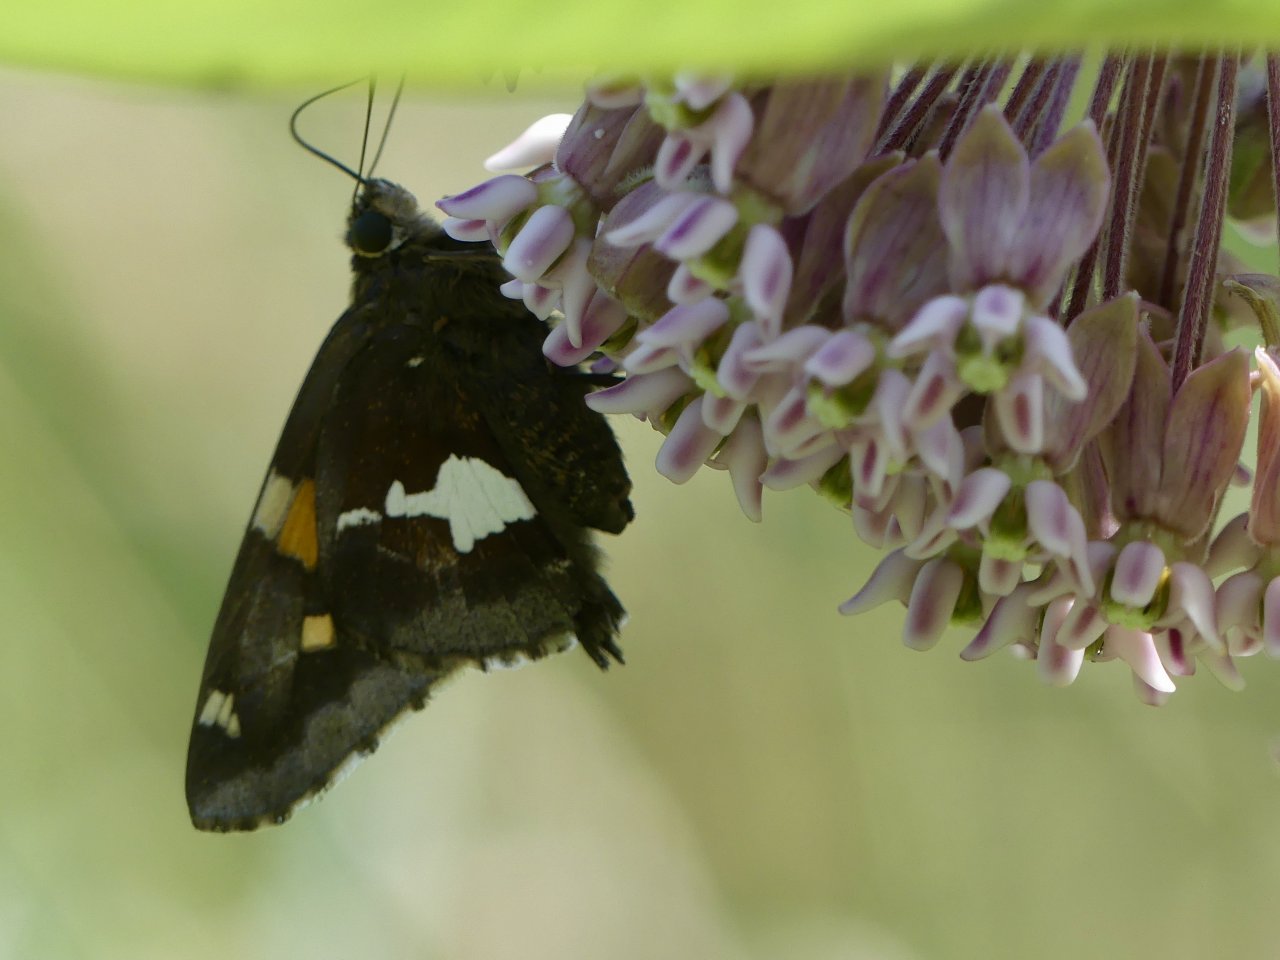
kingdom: Animalia
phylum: Arthropoda
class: Insecta
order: Lepidoptera
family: Hesperiidae
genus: Epargyreus
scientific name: Epargyreus clarus
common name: Silver-spotted Skipper
